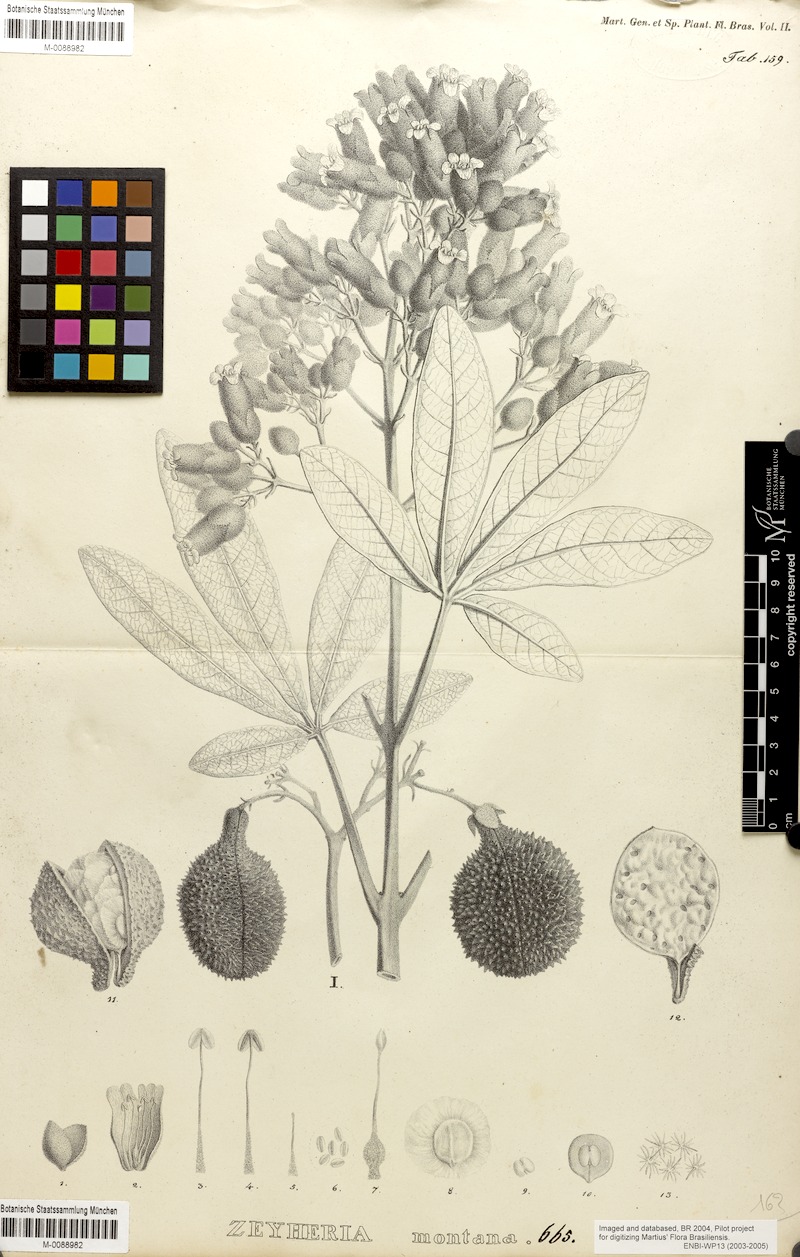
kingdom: Plantae
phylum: Tracheophyta
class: Magnoliopsida
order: Lamiales
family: Bignoniaceae
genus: Zeyheria
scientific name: Zeyheria montana
